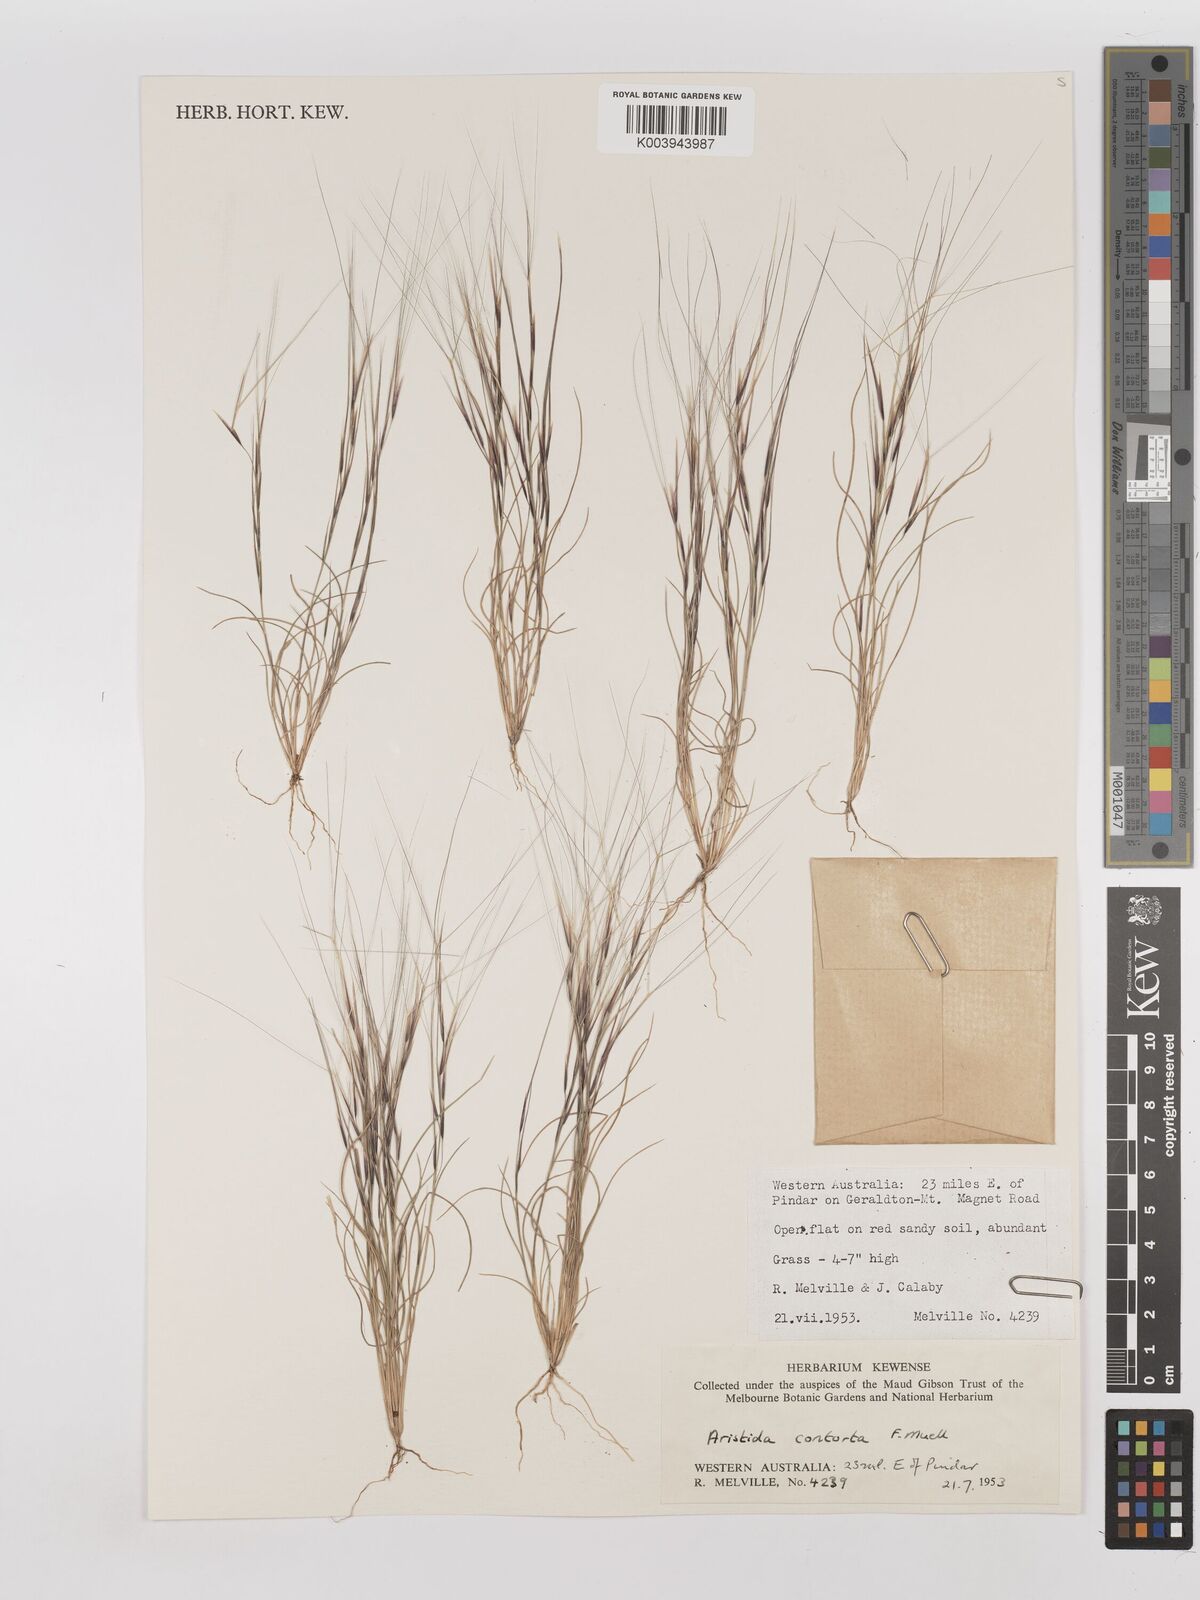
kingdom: Plantae
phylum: Tracheophyta
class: Liliopsida
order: Poales
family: Poaceae
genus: Aristida
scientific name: Aristida contorta
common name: Bunch kerosene grass
